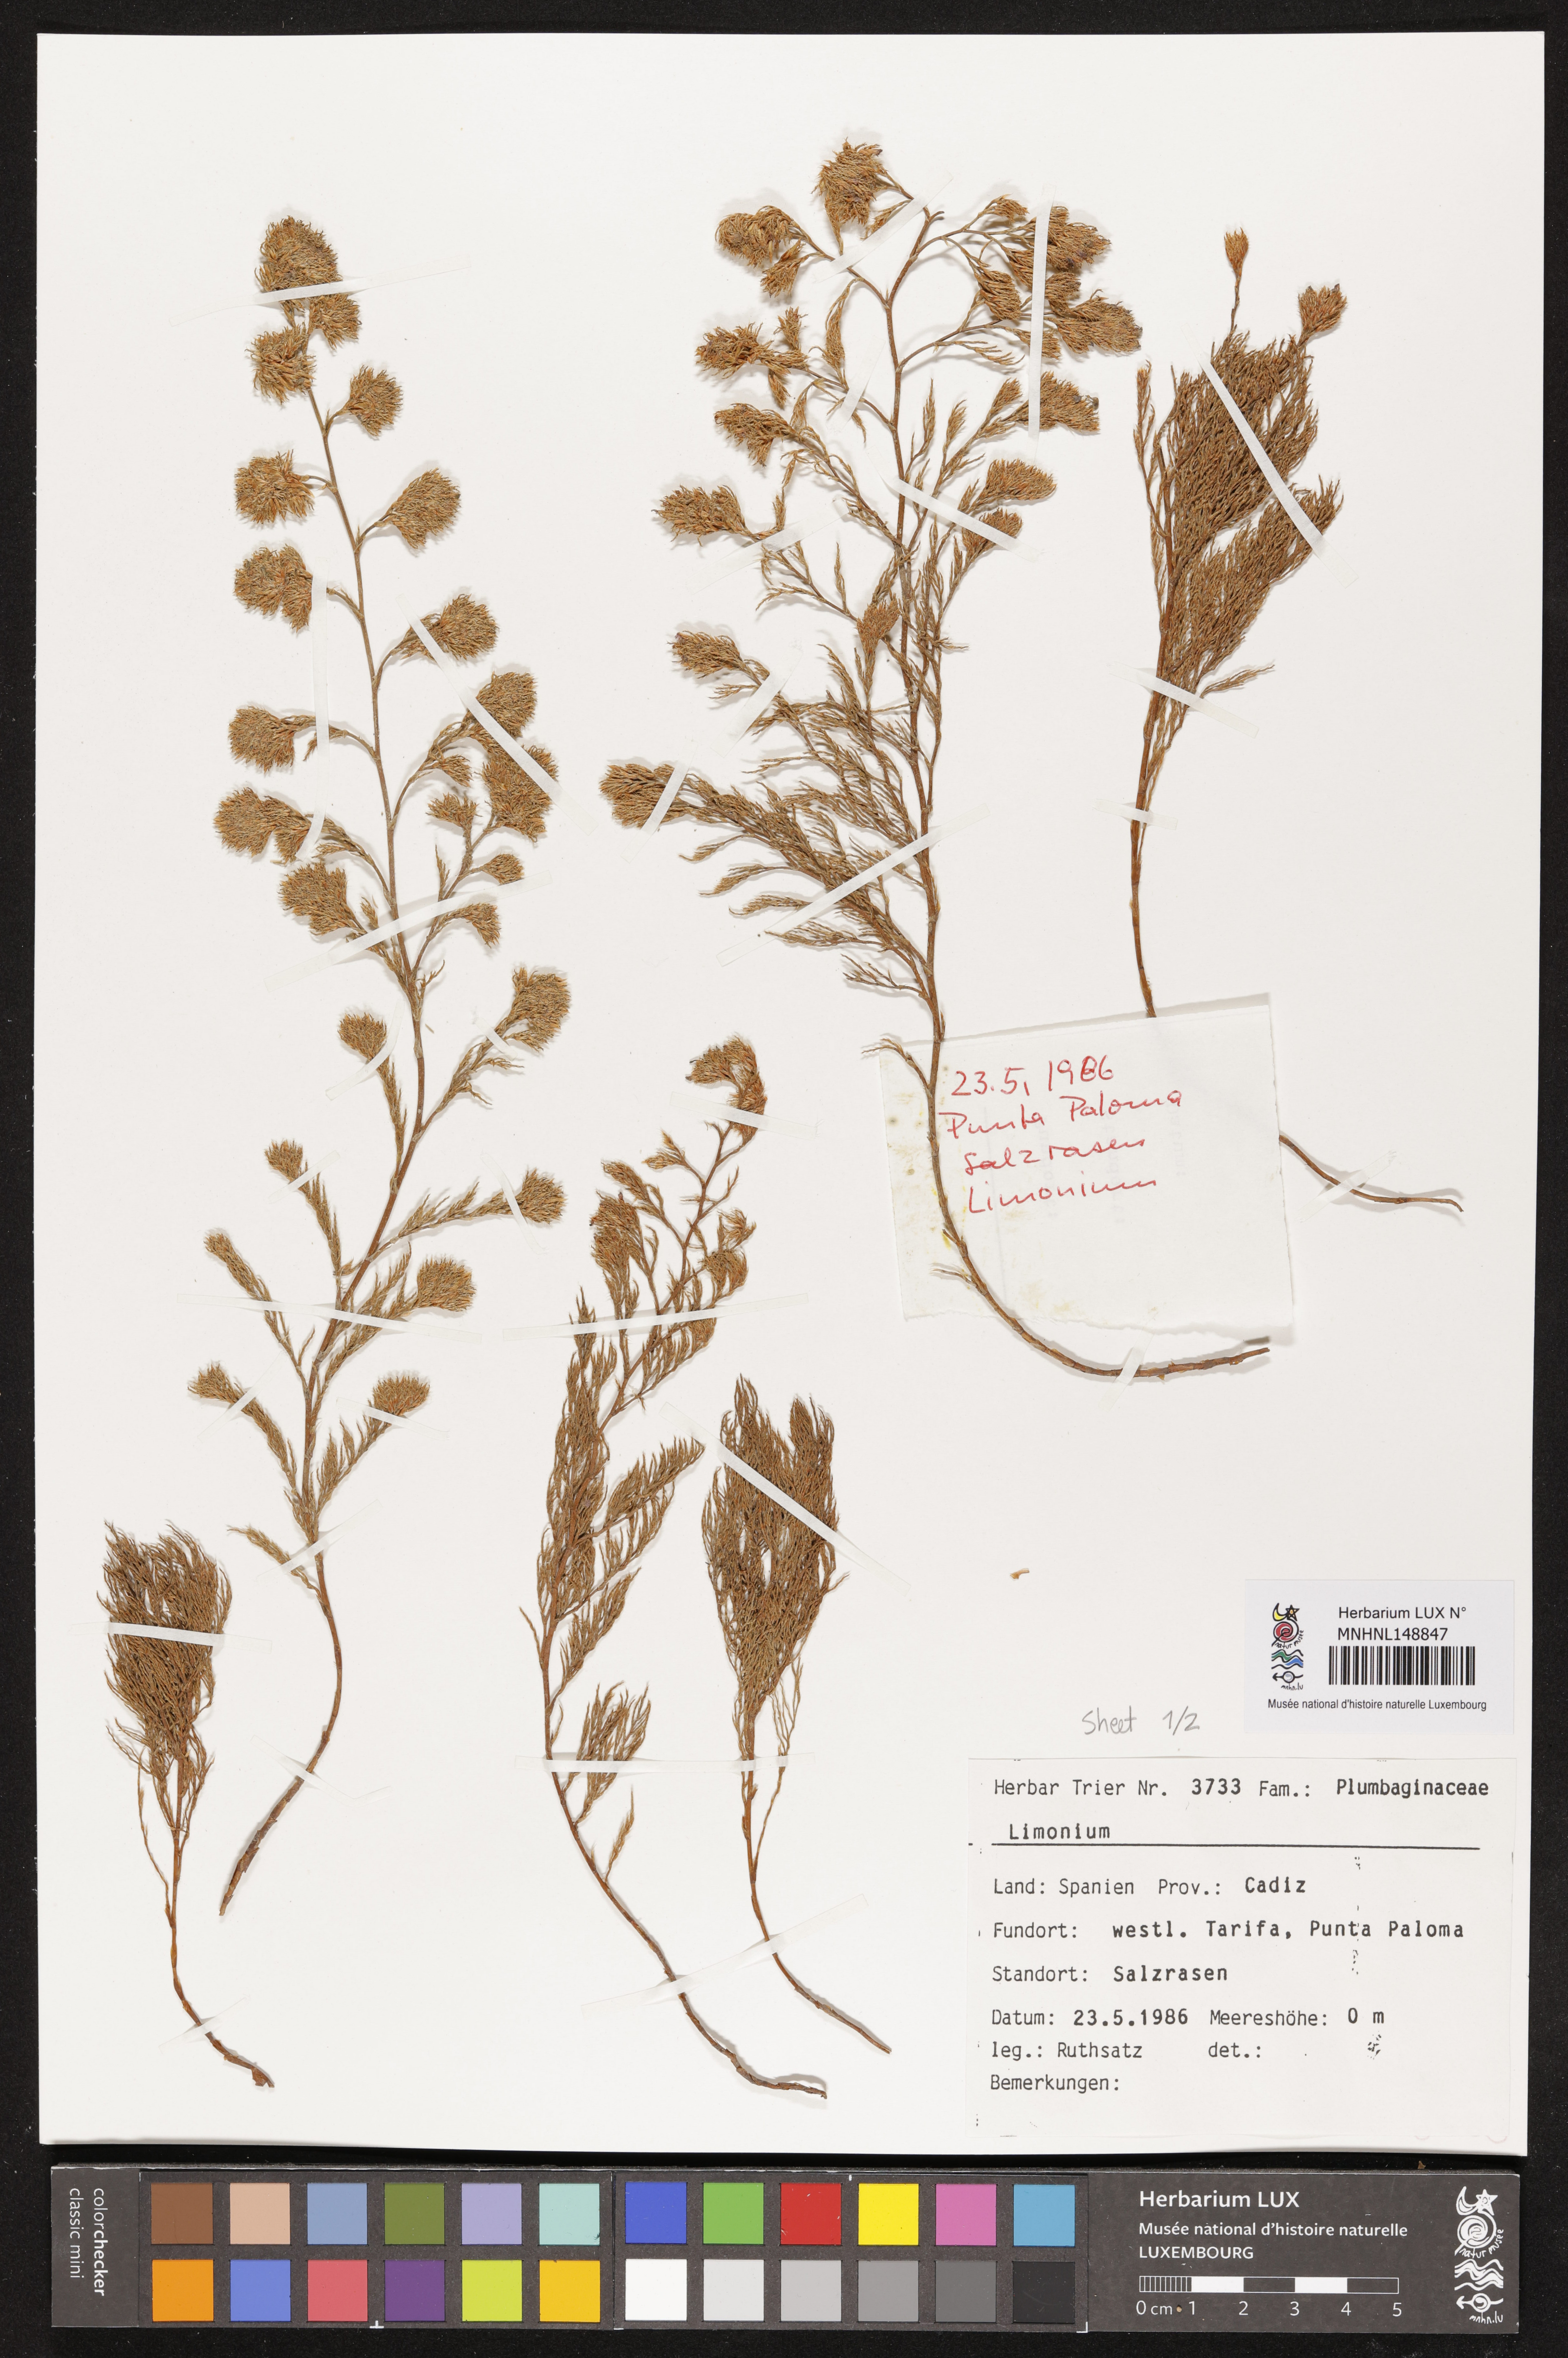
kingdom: Plantae
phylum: Tracheophyta
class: Magnoliopsida
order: Caryophyllales
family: Plumbaginaceae
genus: Limonium
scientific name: Limonium
